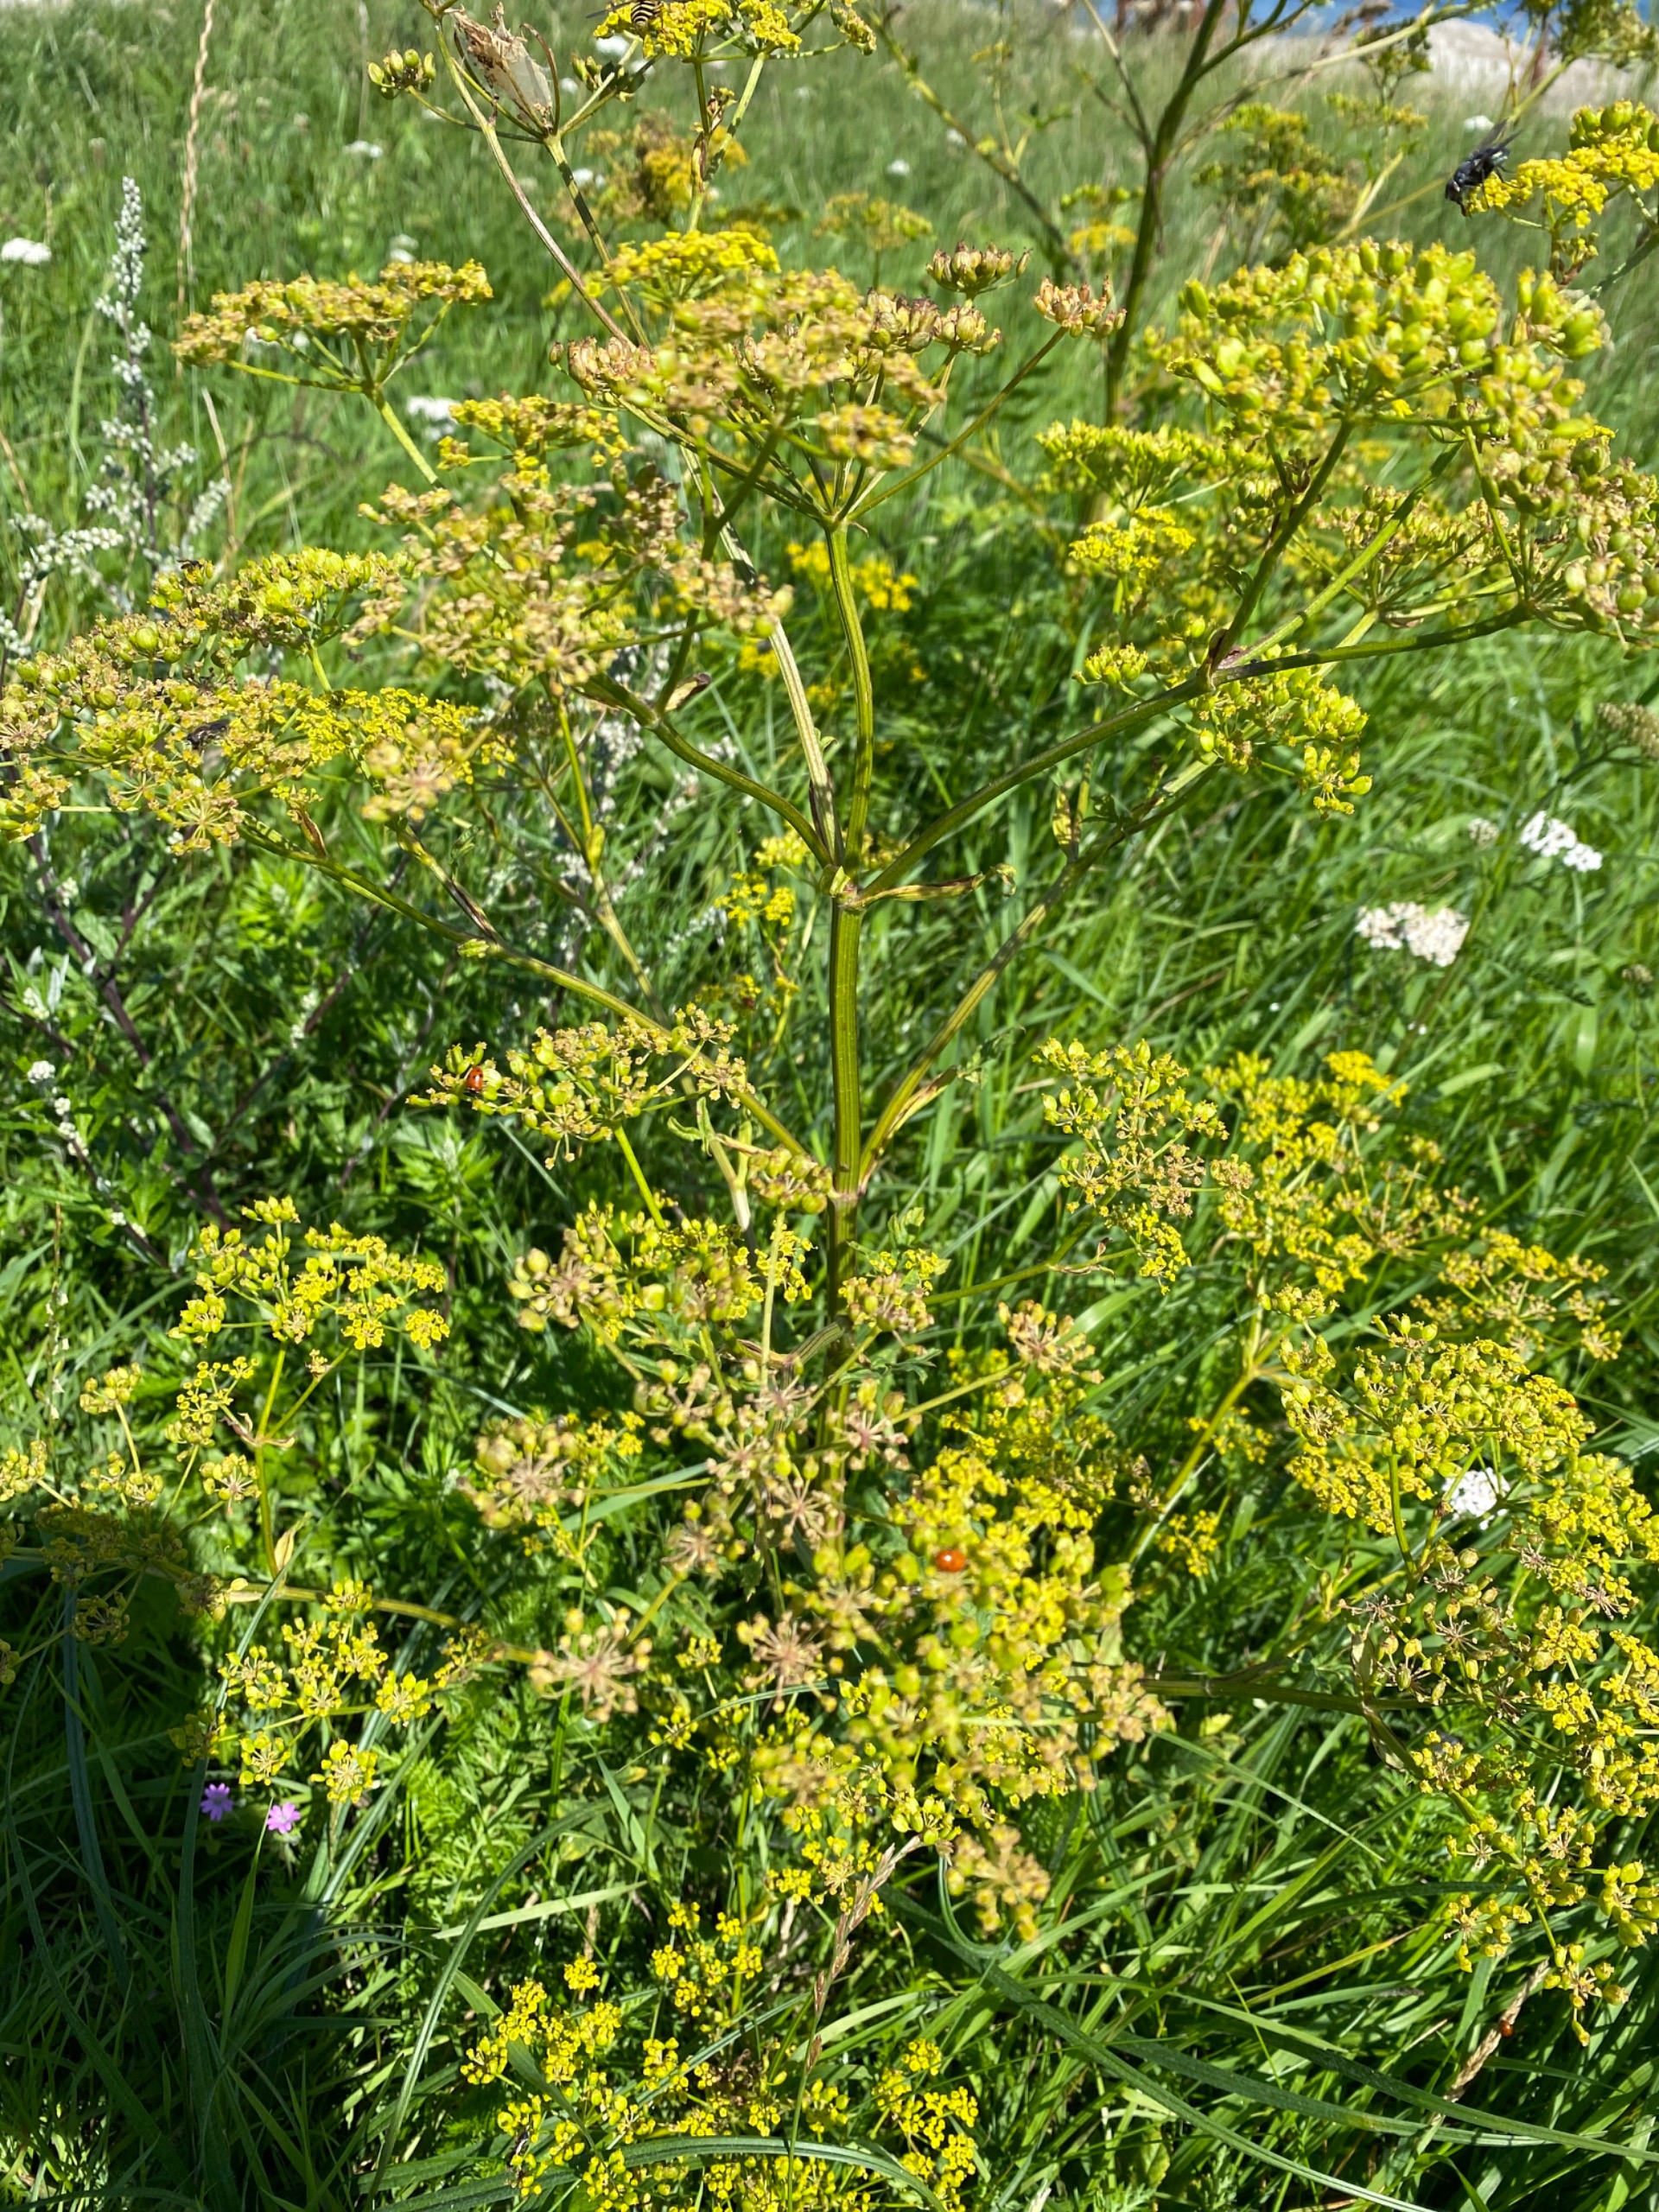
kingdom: Plantae
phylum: Tracheophyta
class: Magnoliopsida
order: Apiales
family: Apiaceae
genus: Pastinaca
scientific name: Pastinaca sativa
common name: Pastinak
